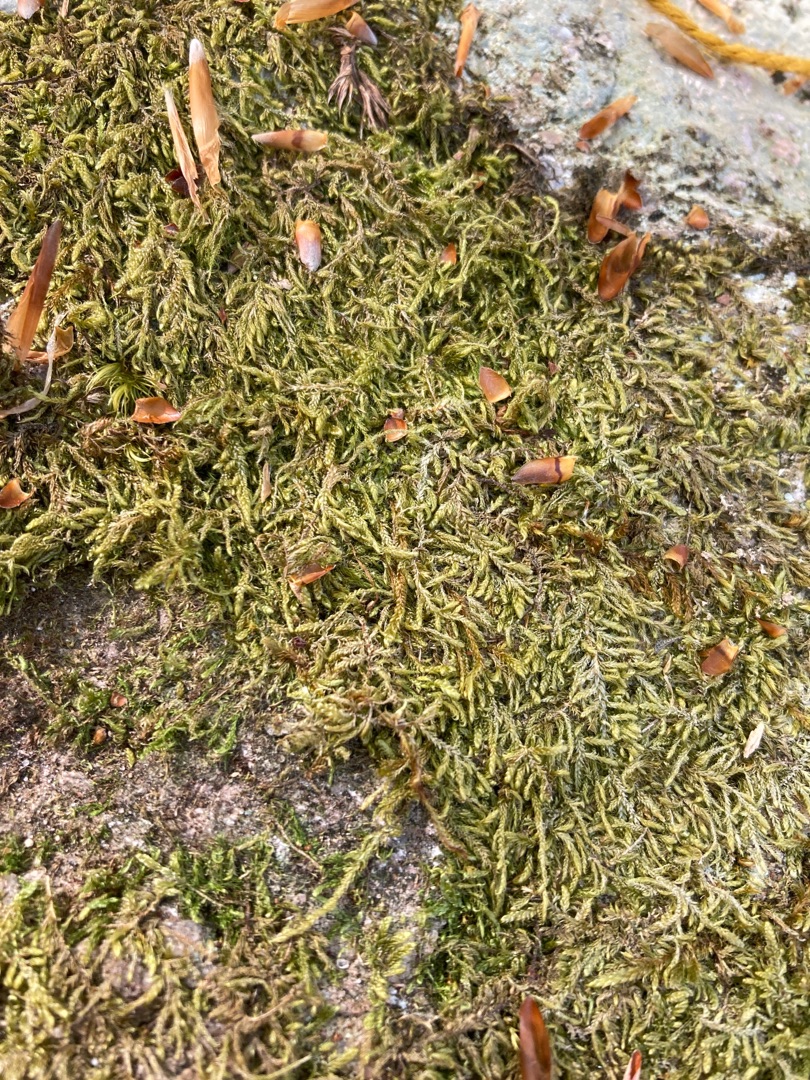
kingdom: Plantae
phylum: Bryophyta
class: Bryopsida
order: Hypnales
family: Hypnaceae
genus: Hypnum
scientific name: Hypnum
